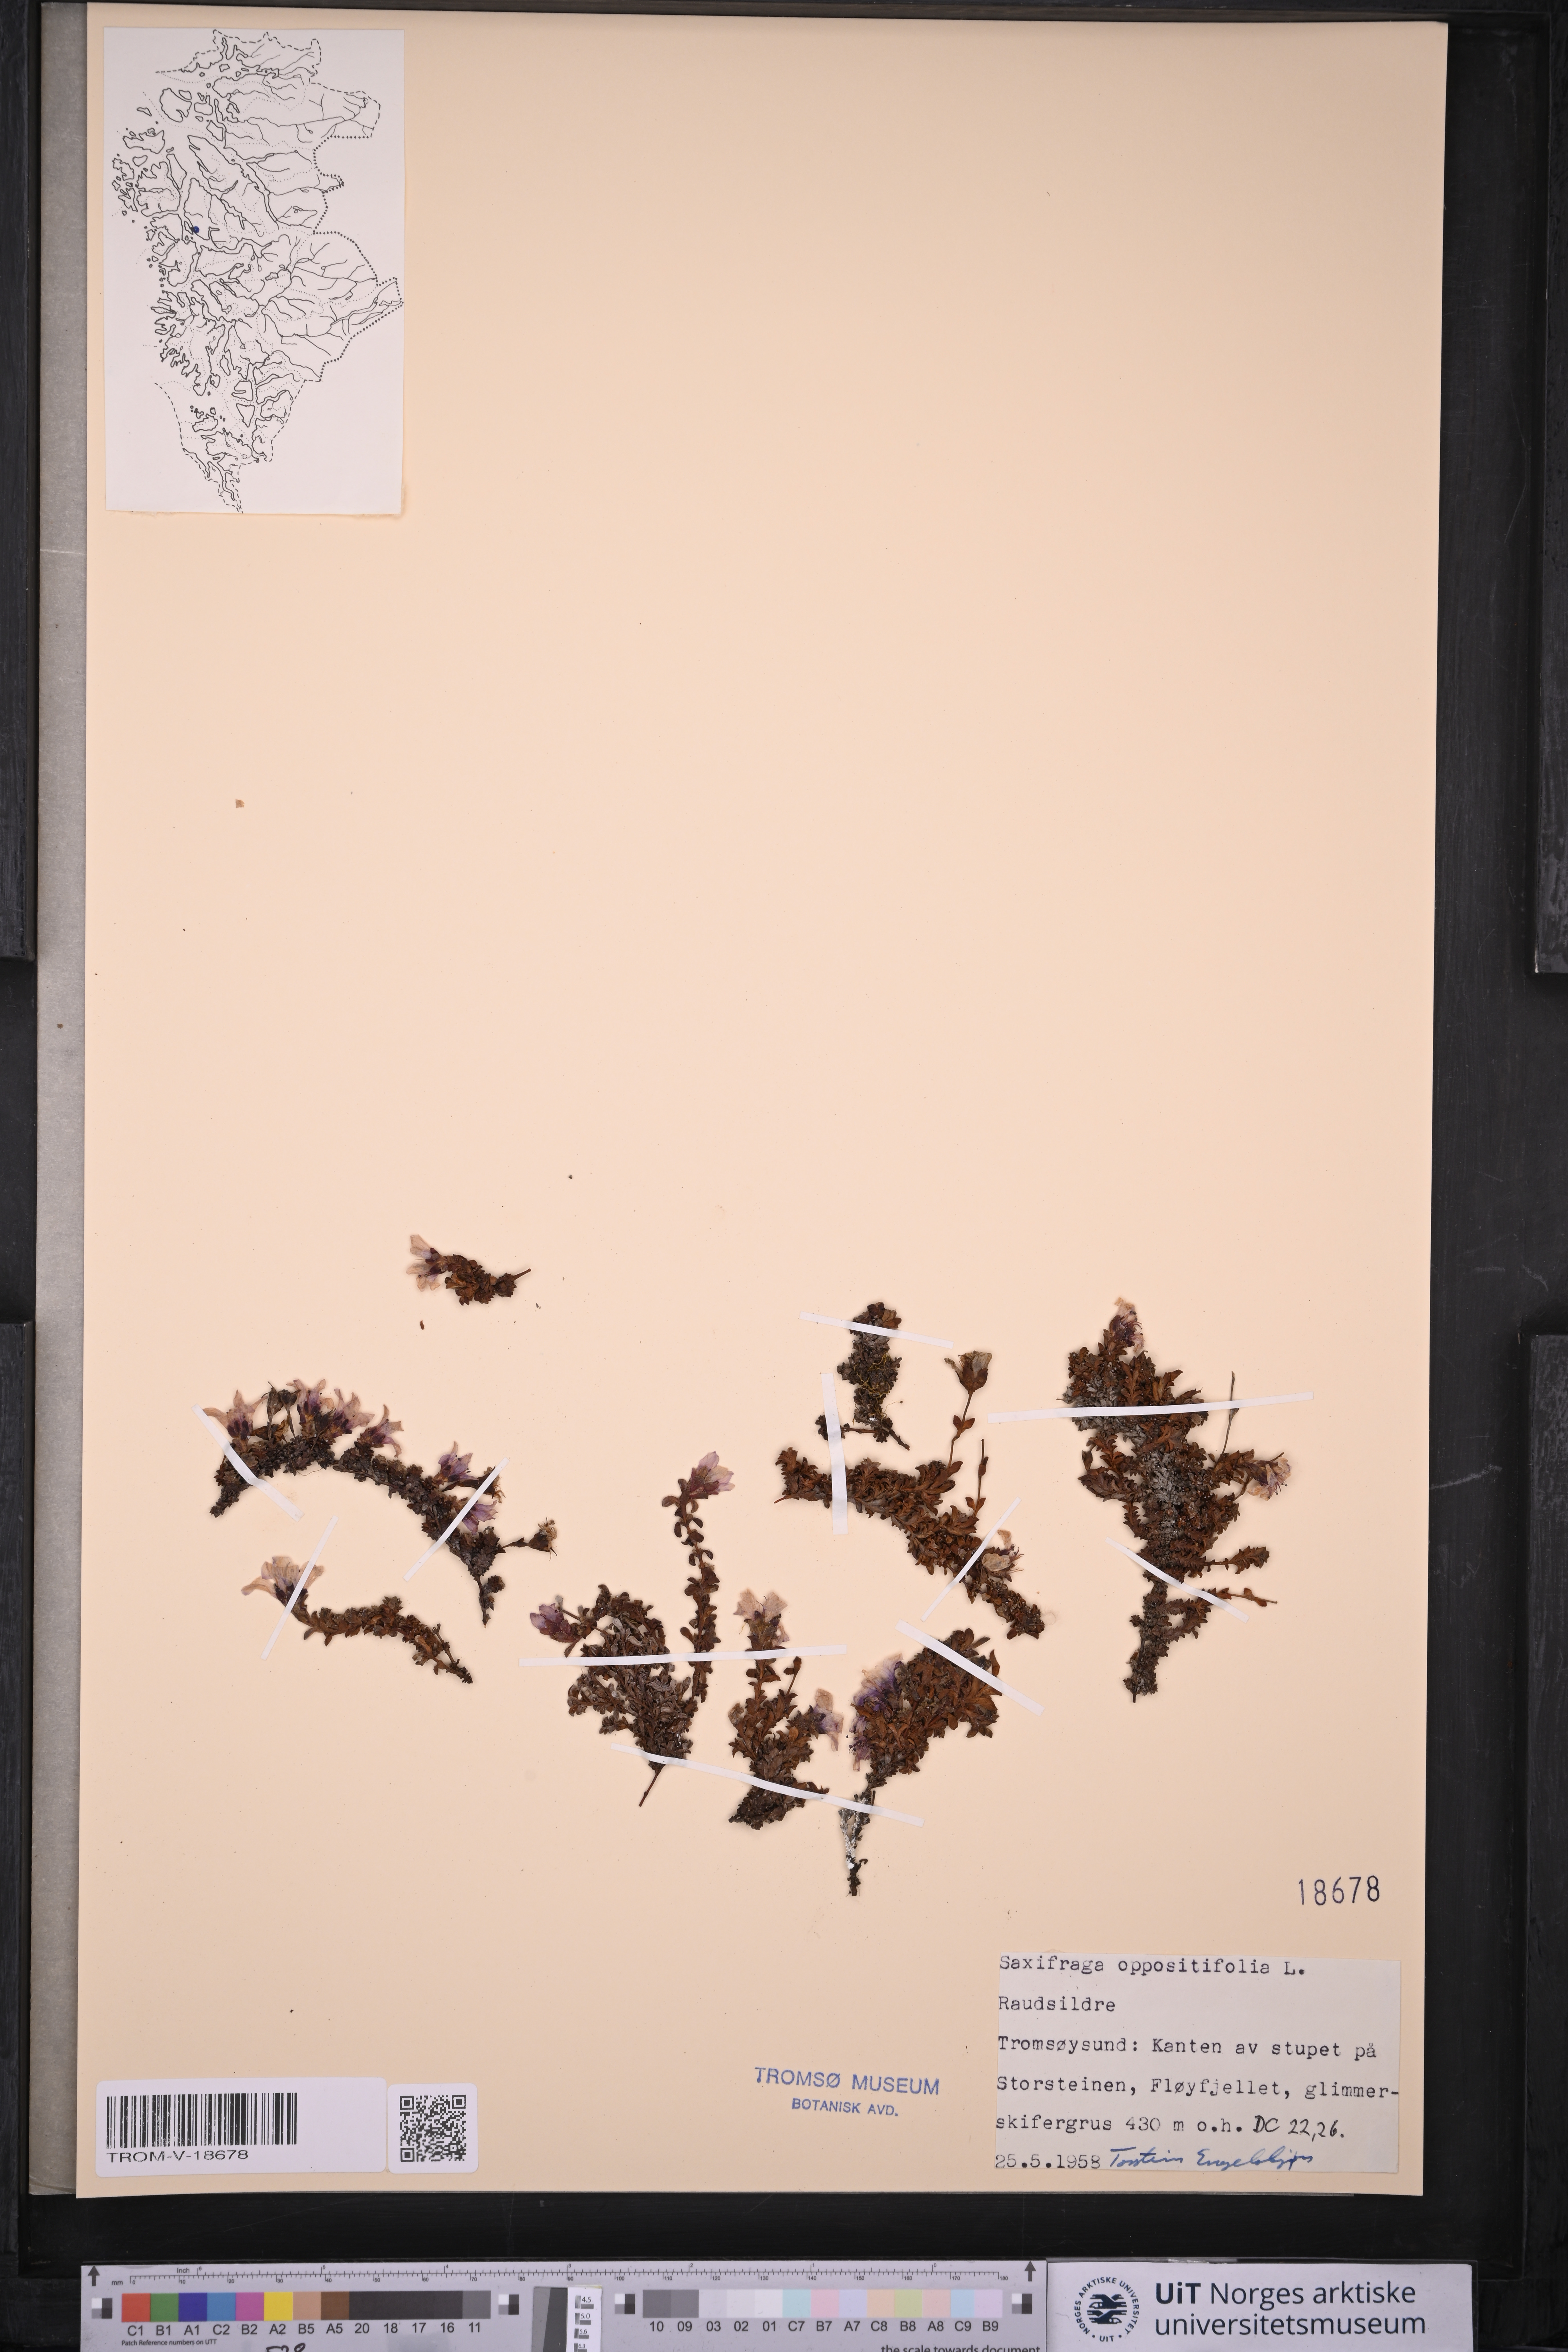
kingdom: Plantae
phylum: Tracheophyta
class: Magnoliopsida
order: Saxifragales
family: Saxifragaceae
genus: Saxifraga
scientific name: Saxifraga oppositifolia
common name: Purple saxifrage
